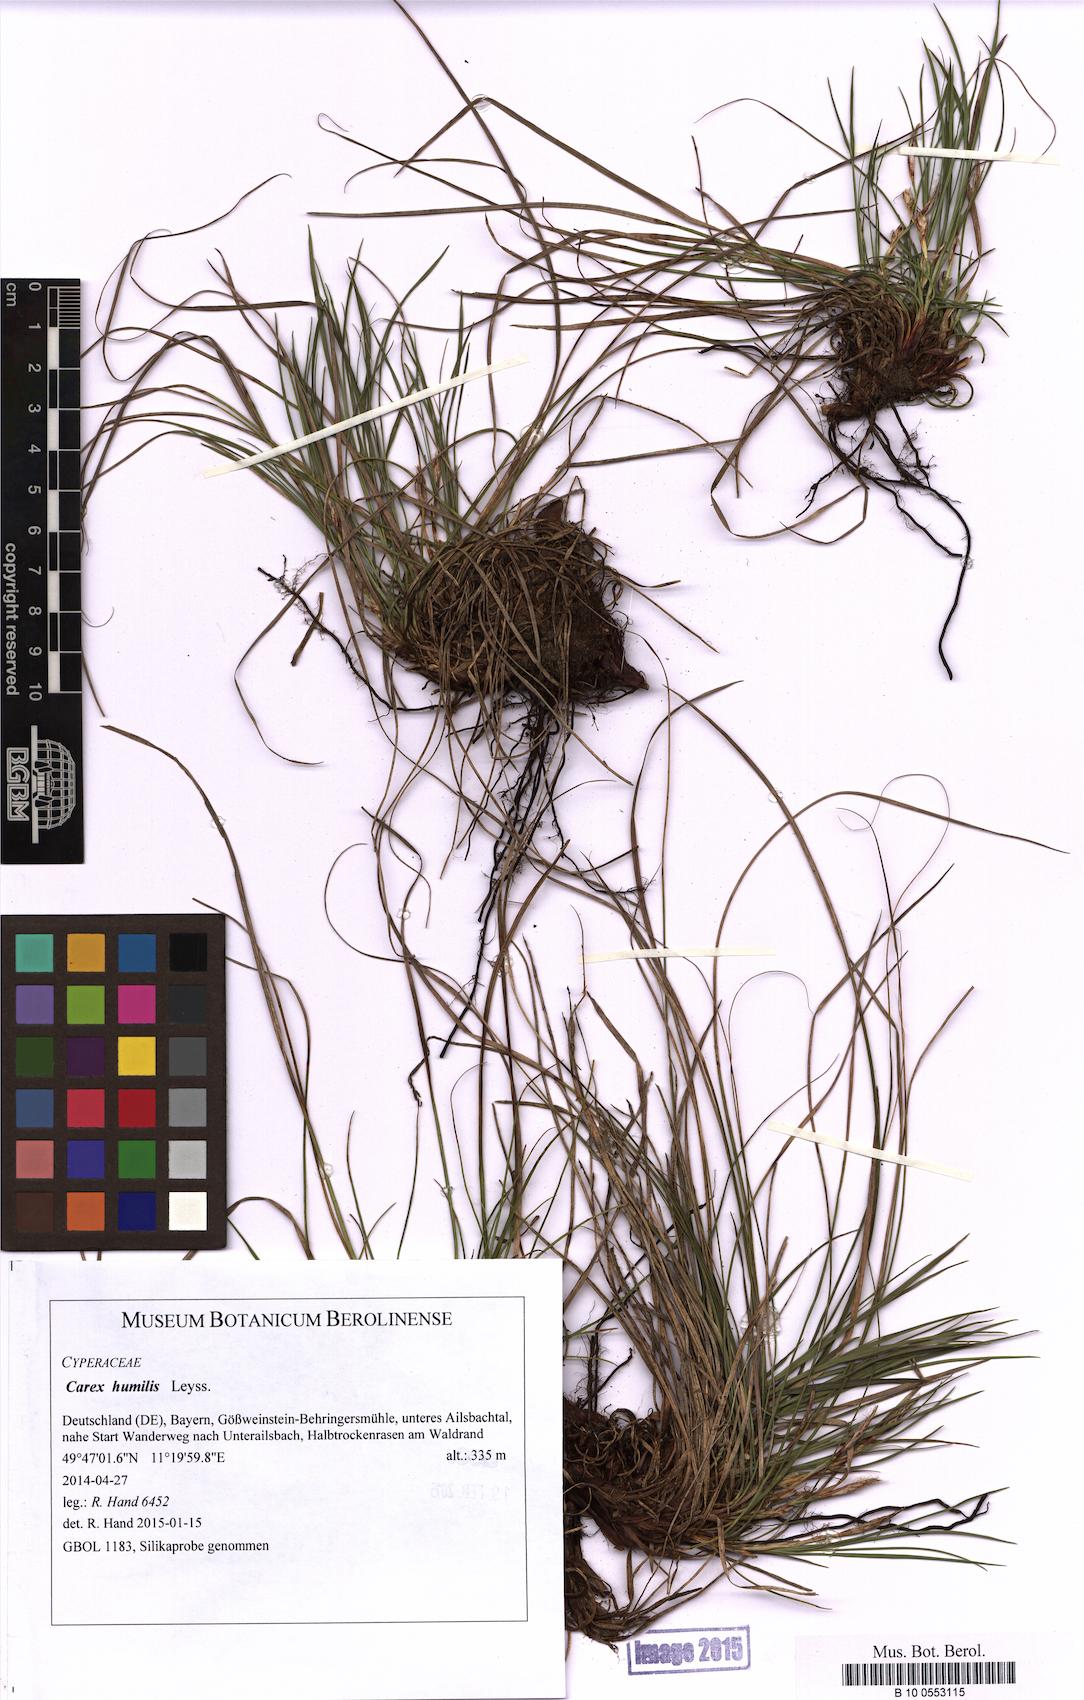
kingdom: Plantae
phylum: Tracheophyta
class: Liliopsida
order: Poales
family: Cyperaceae
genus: Carex
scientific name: Carex humilis
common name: Dwarf sedge
